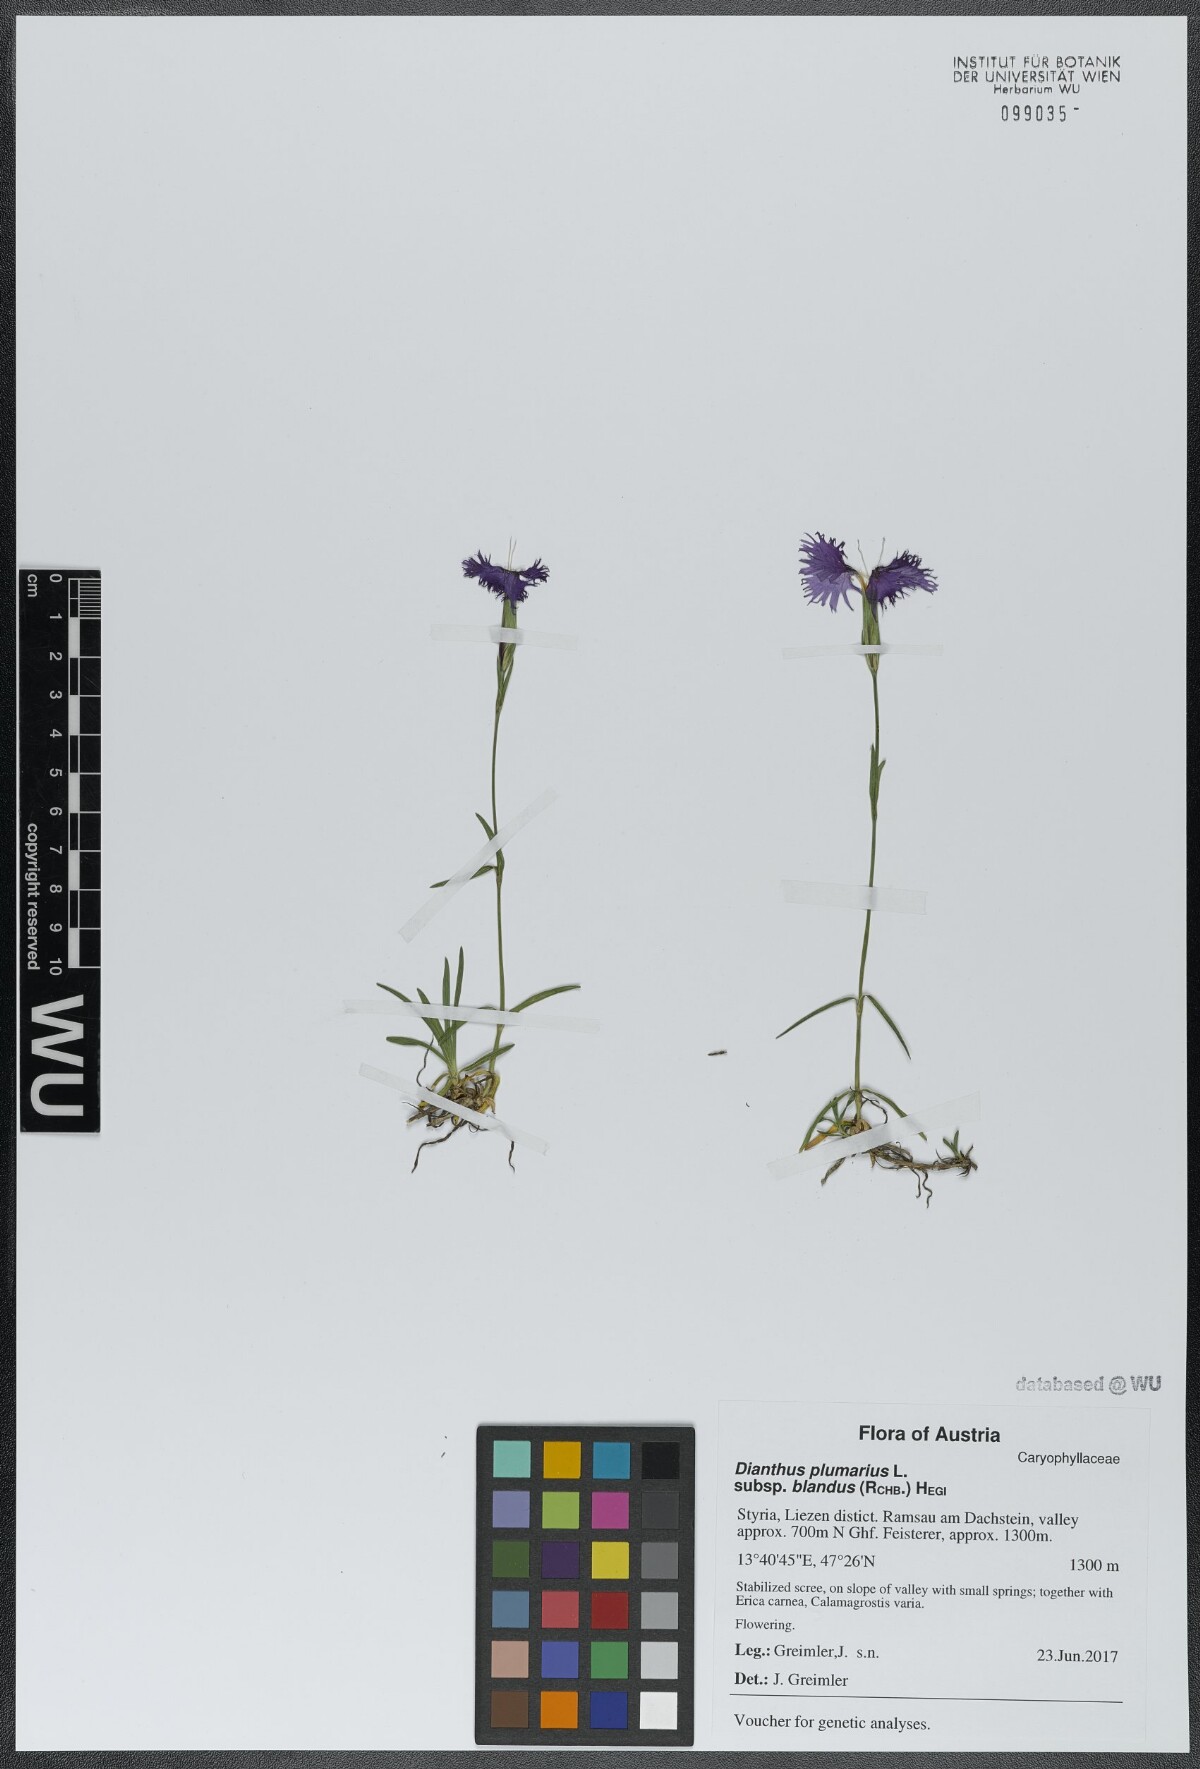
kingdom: Plantae
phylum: Tracheophyta
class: Magnoliopsida
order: Caryophyllales
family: Caryophyllaceae
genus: Dianthus
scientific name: Dianthus plumarius
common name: Pink
